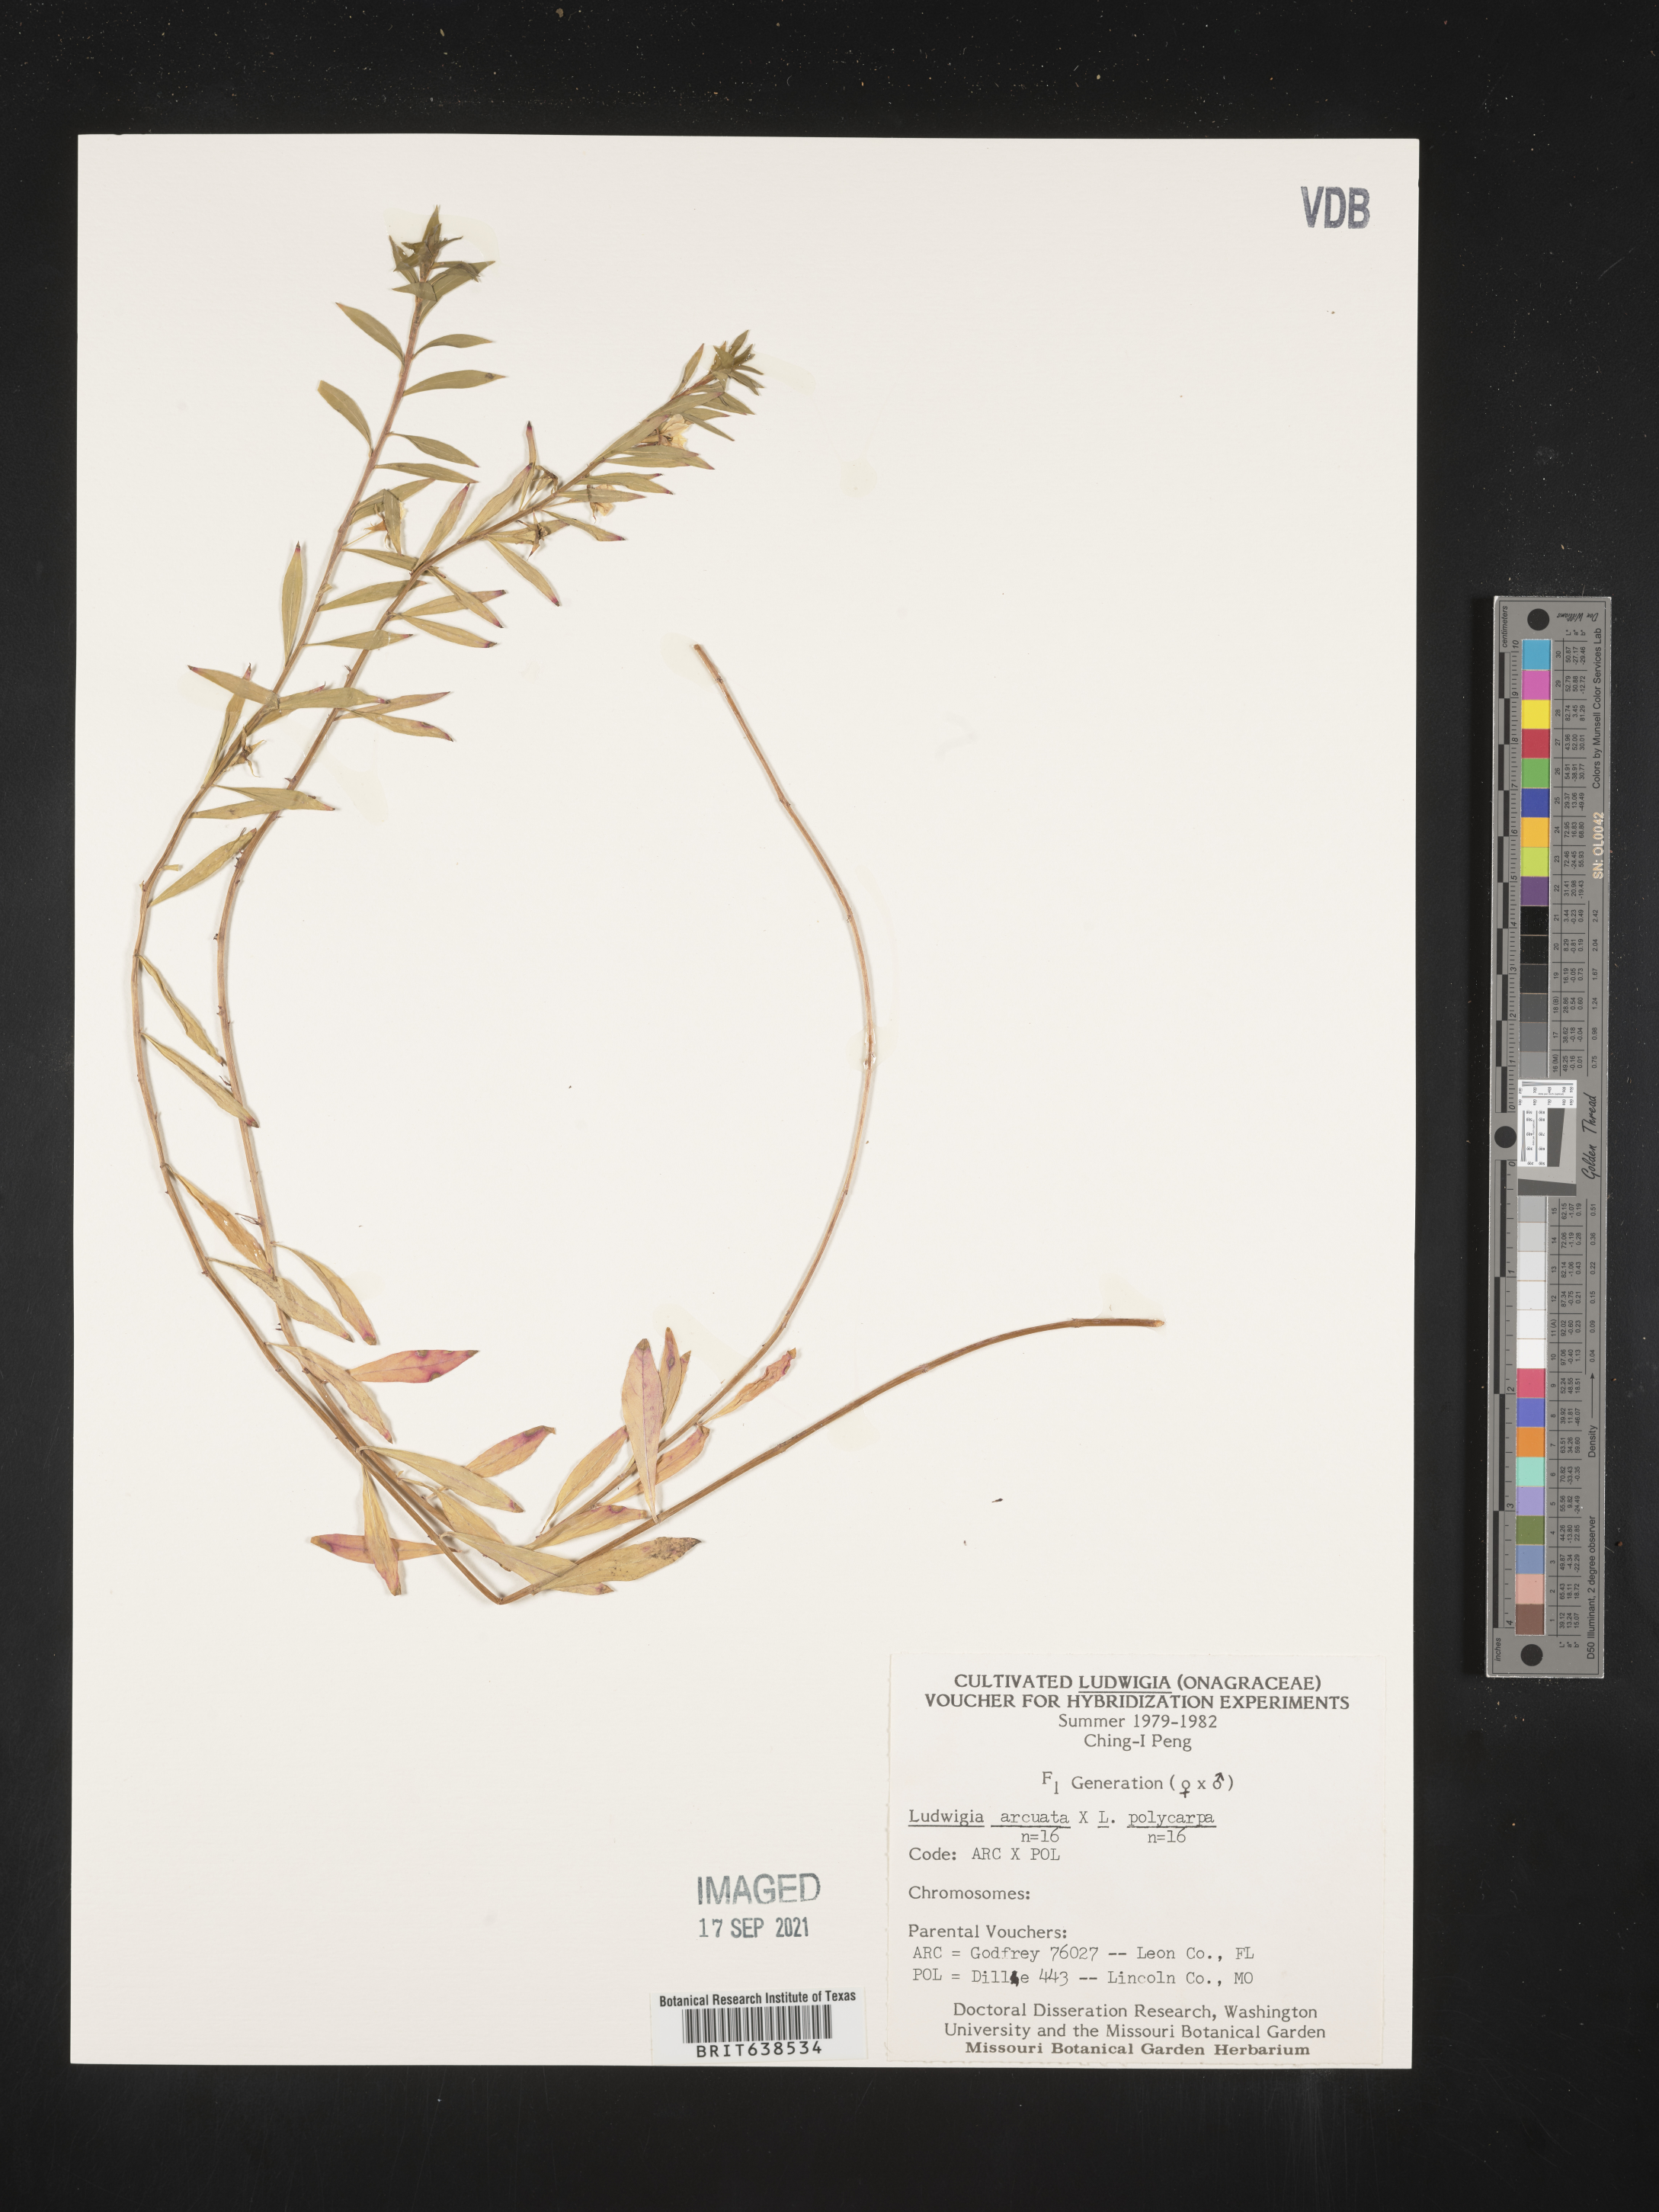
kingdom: Plantae
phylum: Tracheophyta
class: Magnoliopsida
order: Myrtales
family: Onagraceae
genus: Ludwigia
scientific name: Ludwigia
